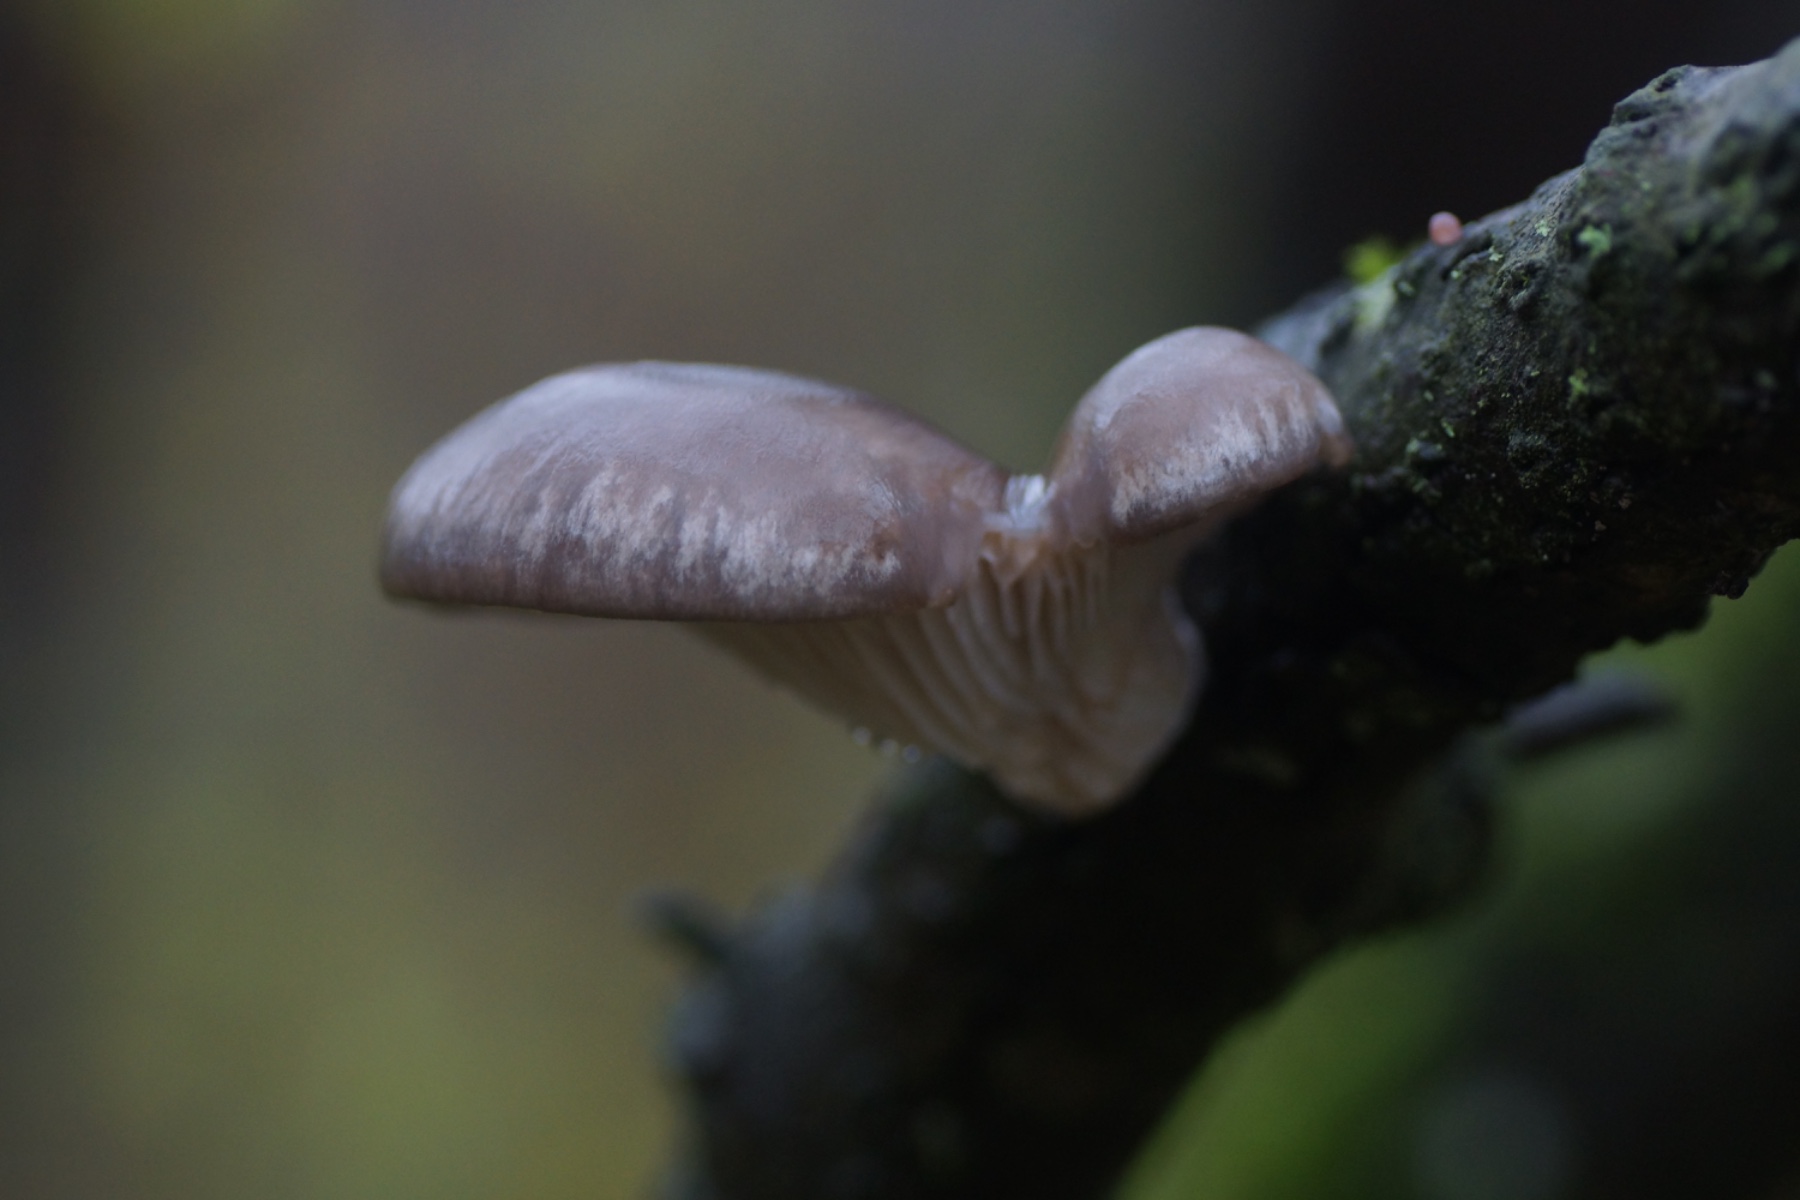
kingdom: Fungi
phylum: Basidiomycota
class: Agaricomycetes
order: Agaricales
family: Pleurotaceae
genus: Pleurotus
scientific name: Pleurotus ostreatus
